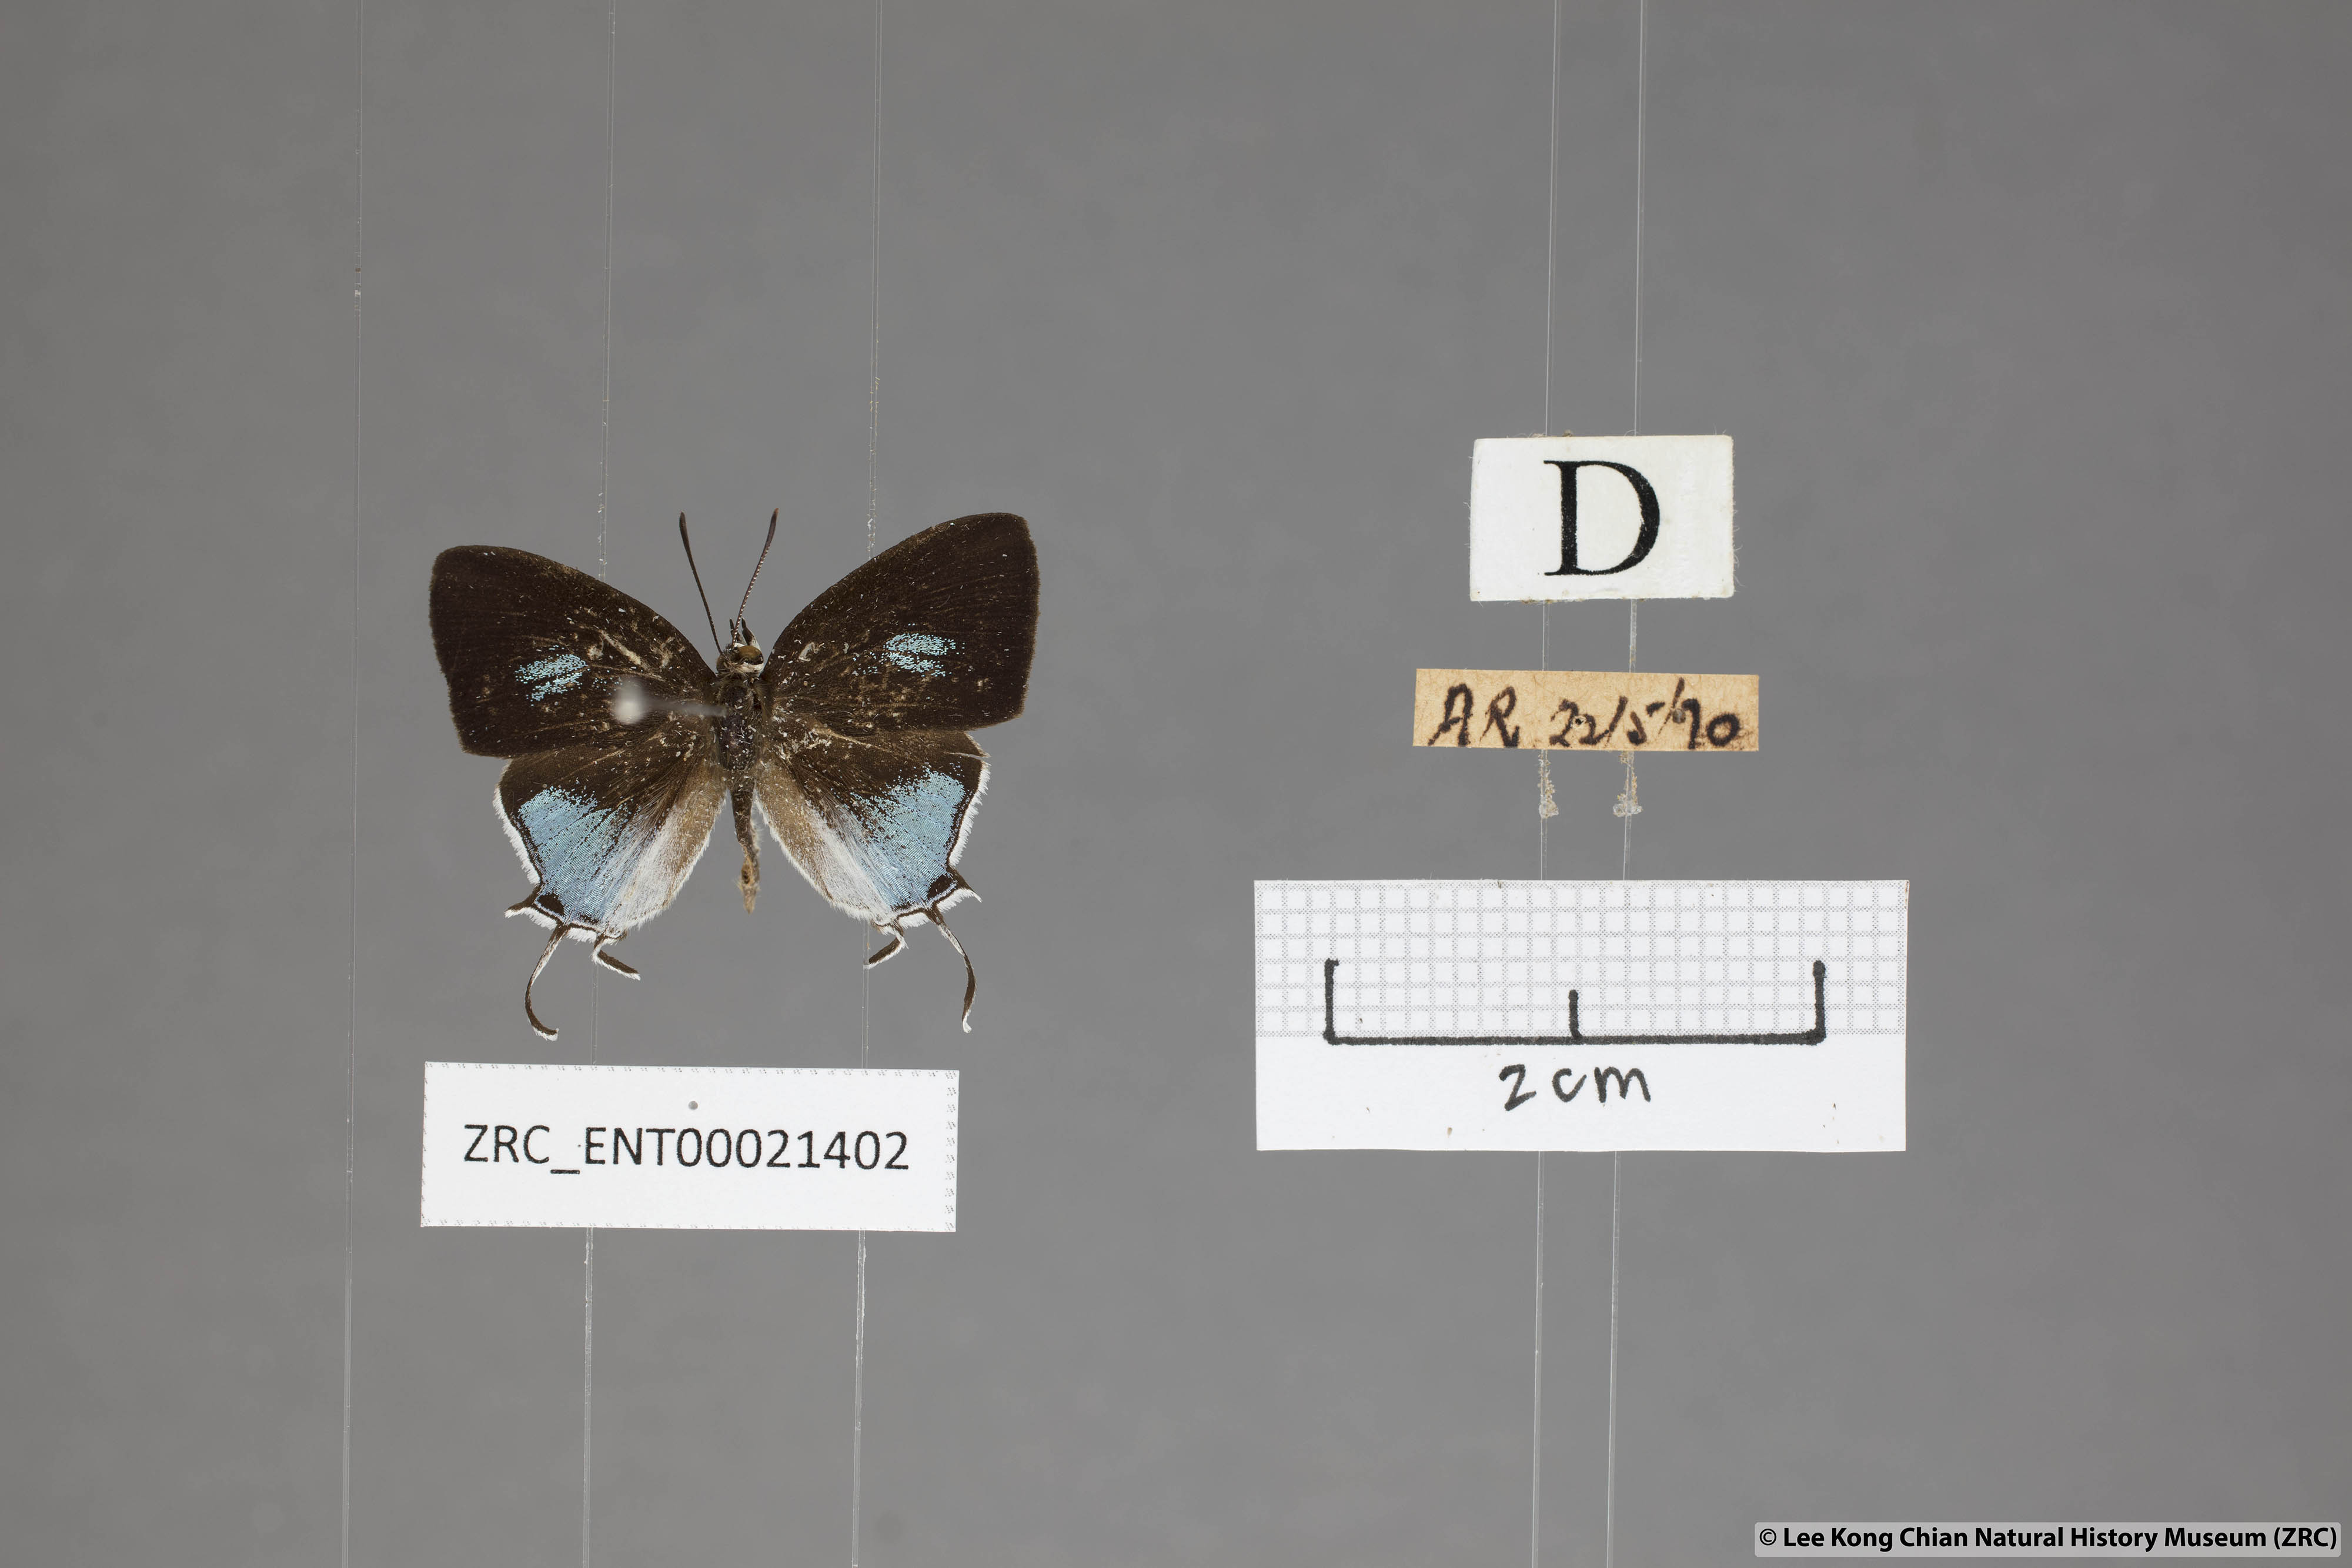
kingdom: Animalia
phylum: Arthropoda
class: Insecta
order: Lepidoptera
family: Lycaenidae
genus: Drupadia
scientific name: Drupadia scaeva
